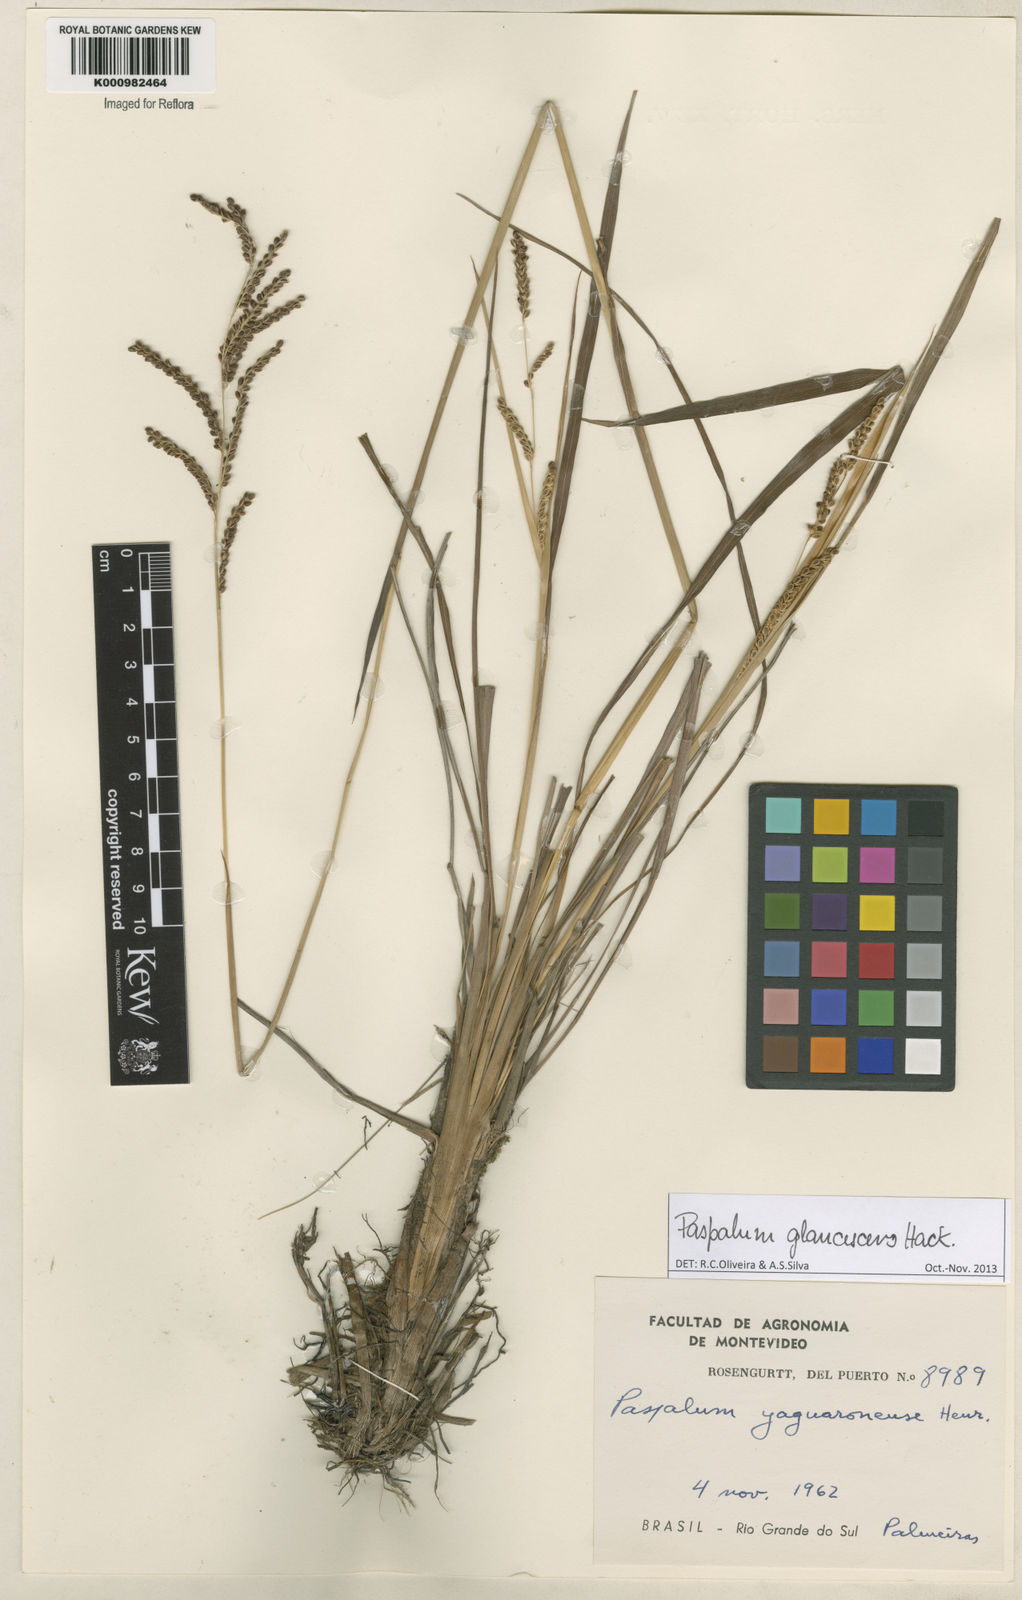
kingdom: Plantae
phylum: Tracheophyta
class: Liliopsida
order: Poales
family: Poaceae
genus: Paspalum
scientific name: Paspalum glaucescens
